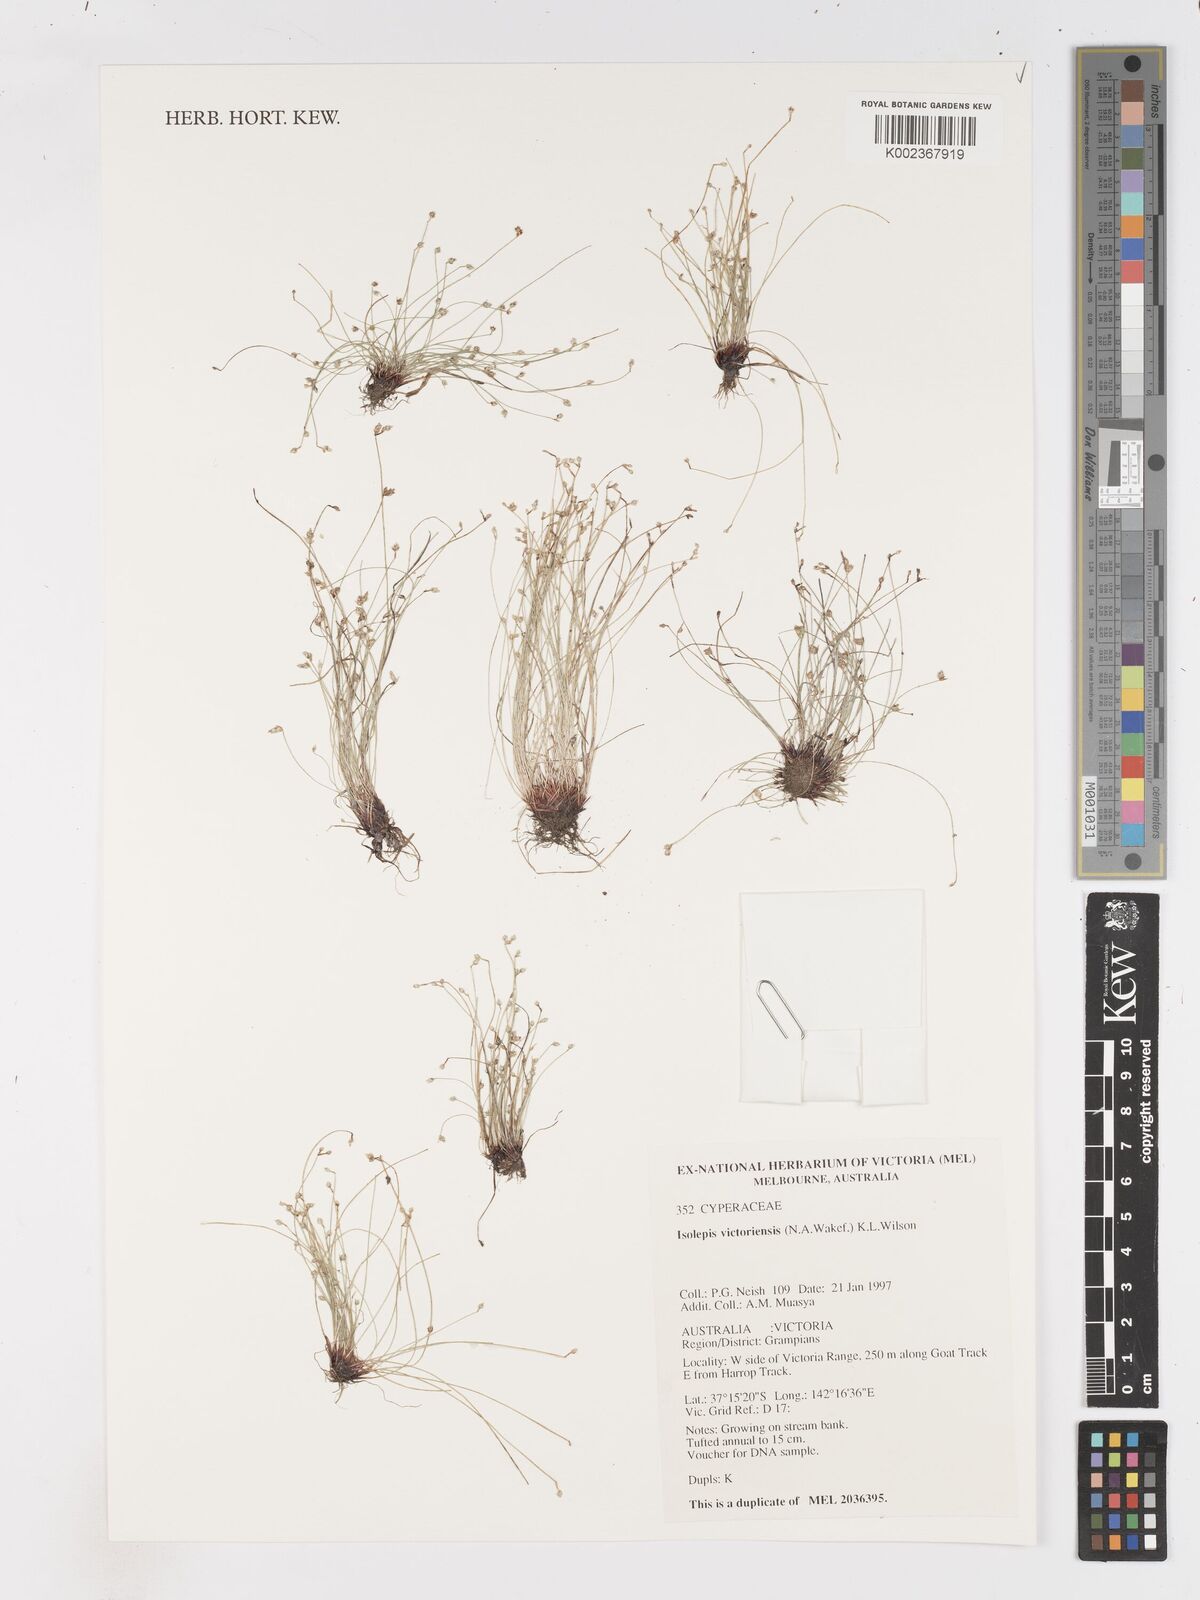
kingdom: Plantae
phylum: Tracheophyta
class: Liliopsida
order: Poales
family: Cyperaceae
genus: Isolepis
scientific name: Isolepis victoriensis
